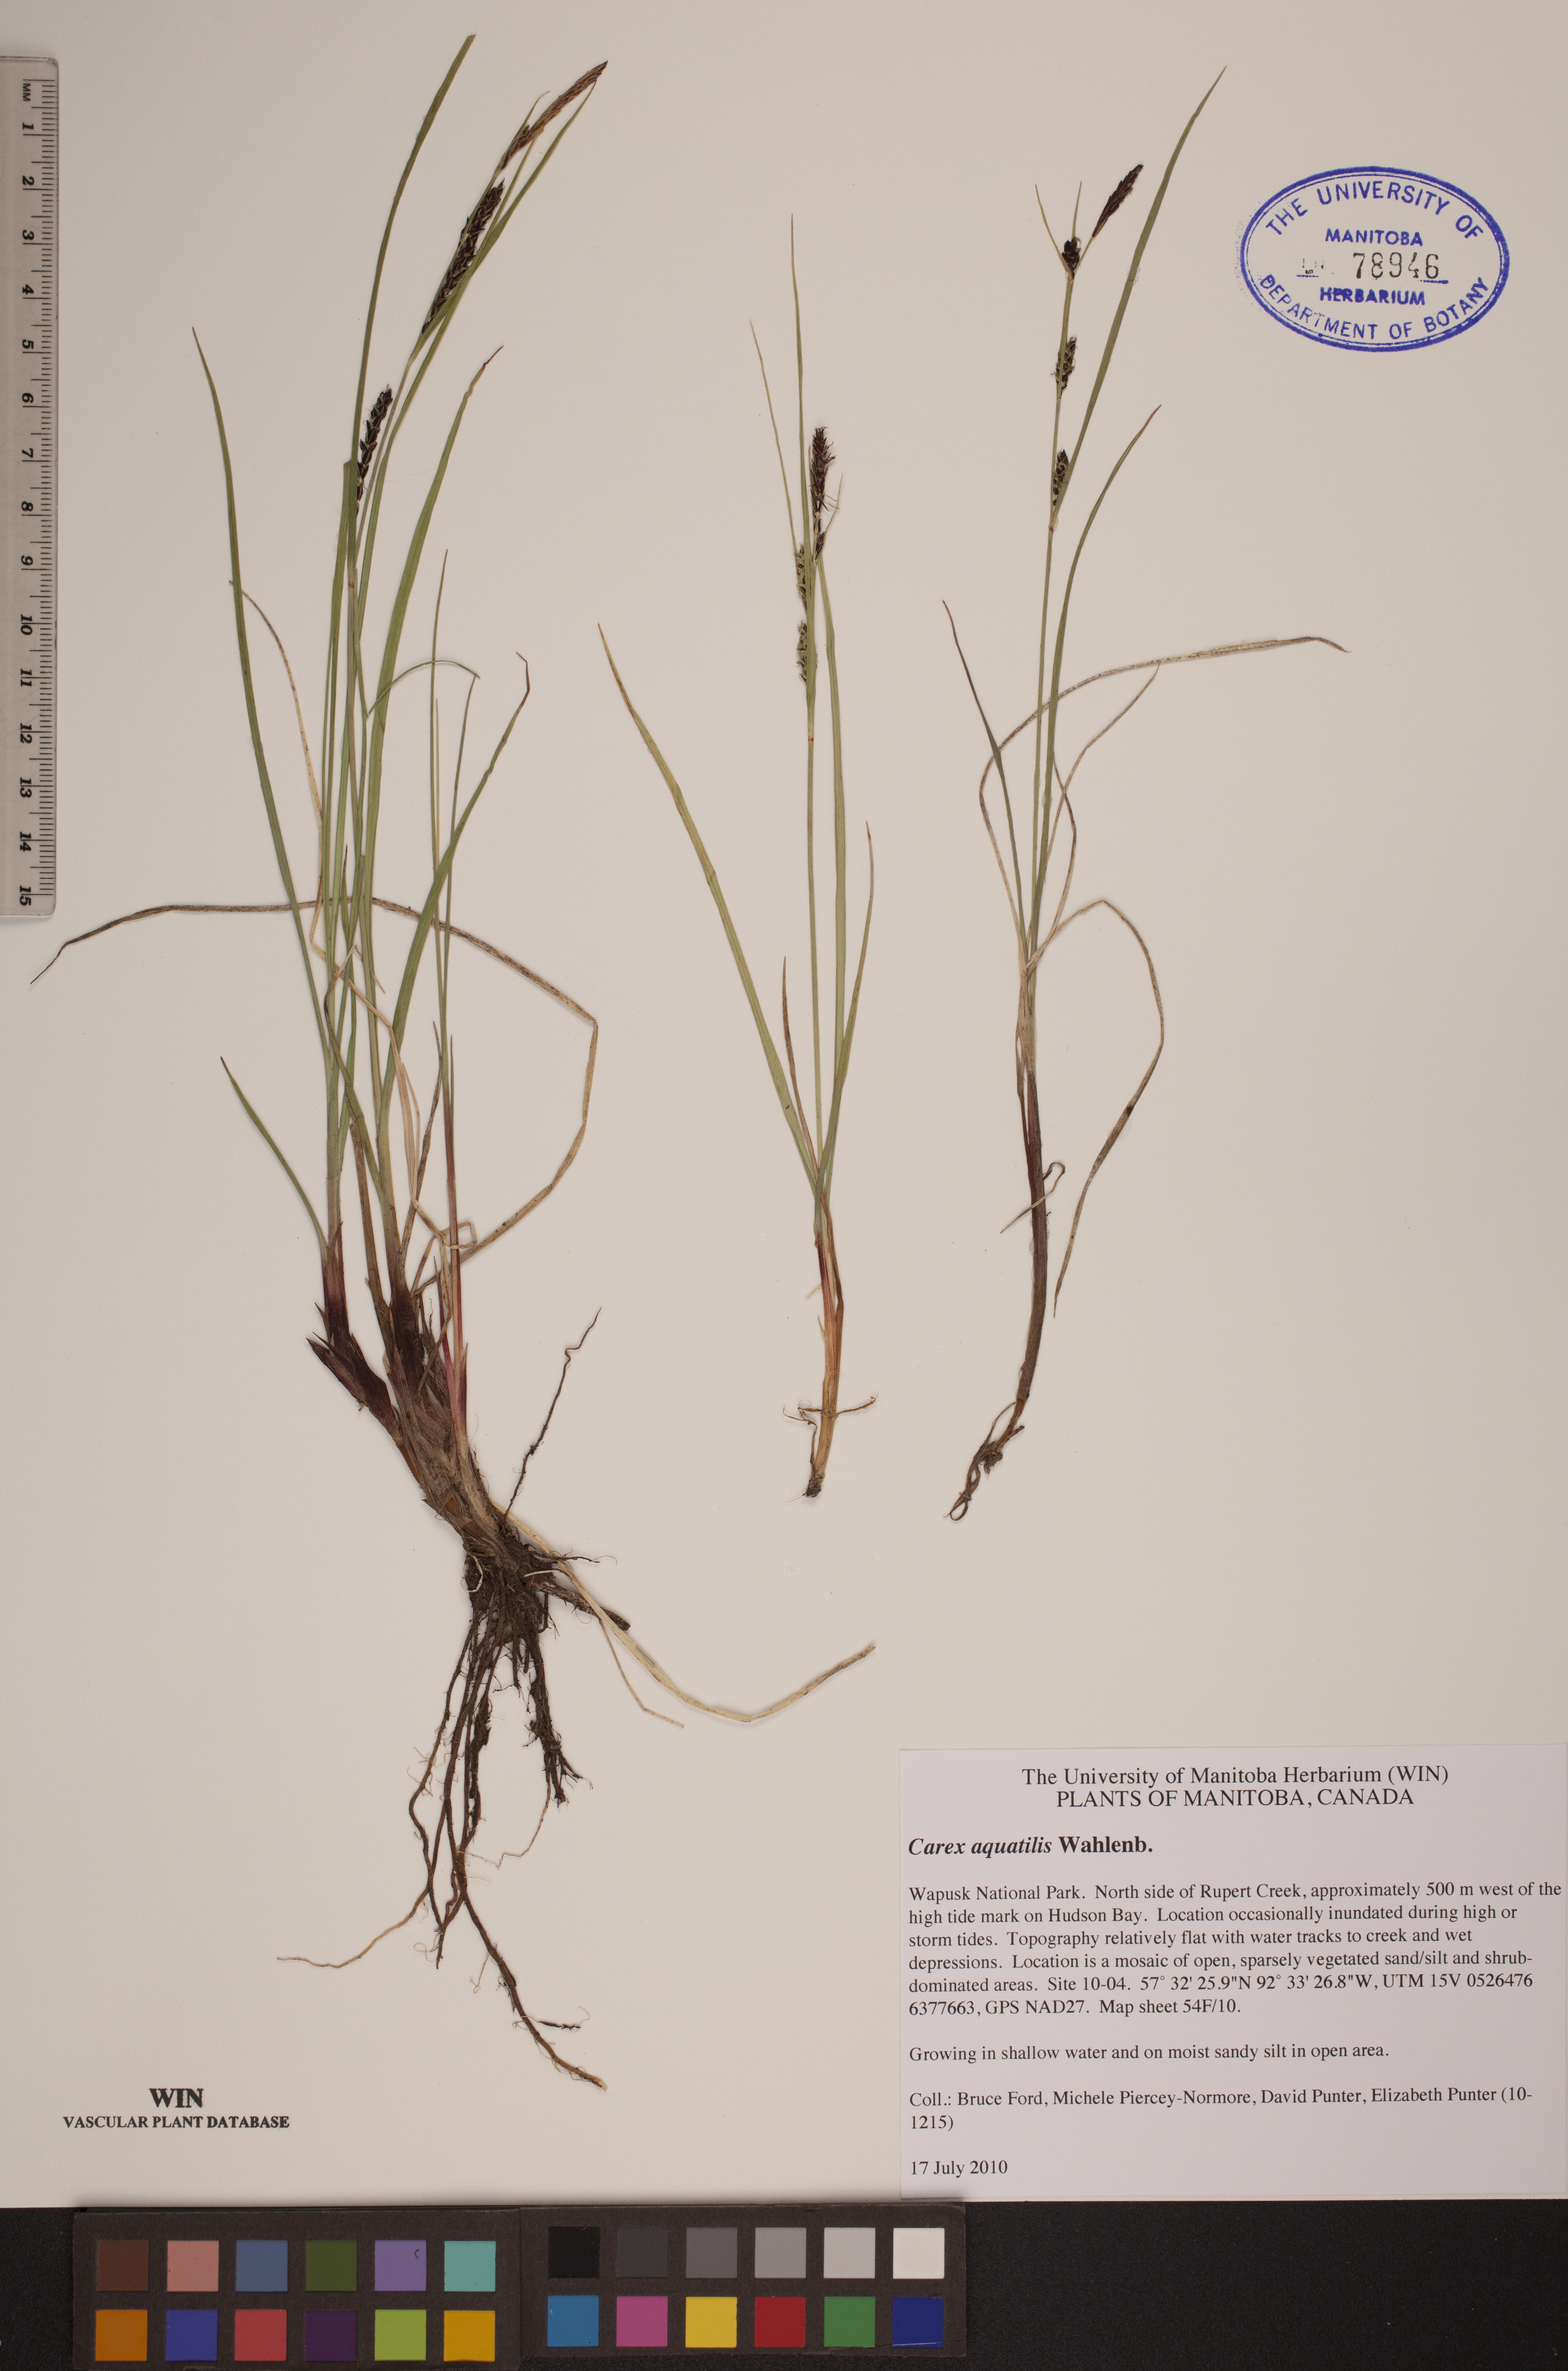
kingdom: Plantae
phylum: Tracheophyta
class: Liliopsida
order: Poales
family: Cyperaceae
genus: Carex
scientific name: Carex aquatilis
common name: Water sedge
